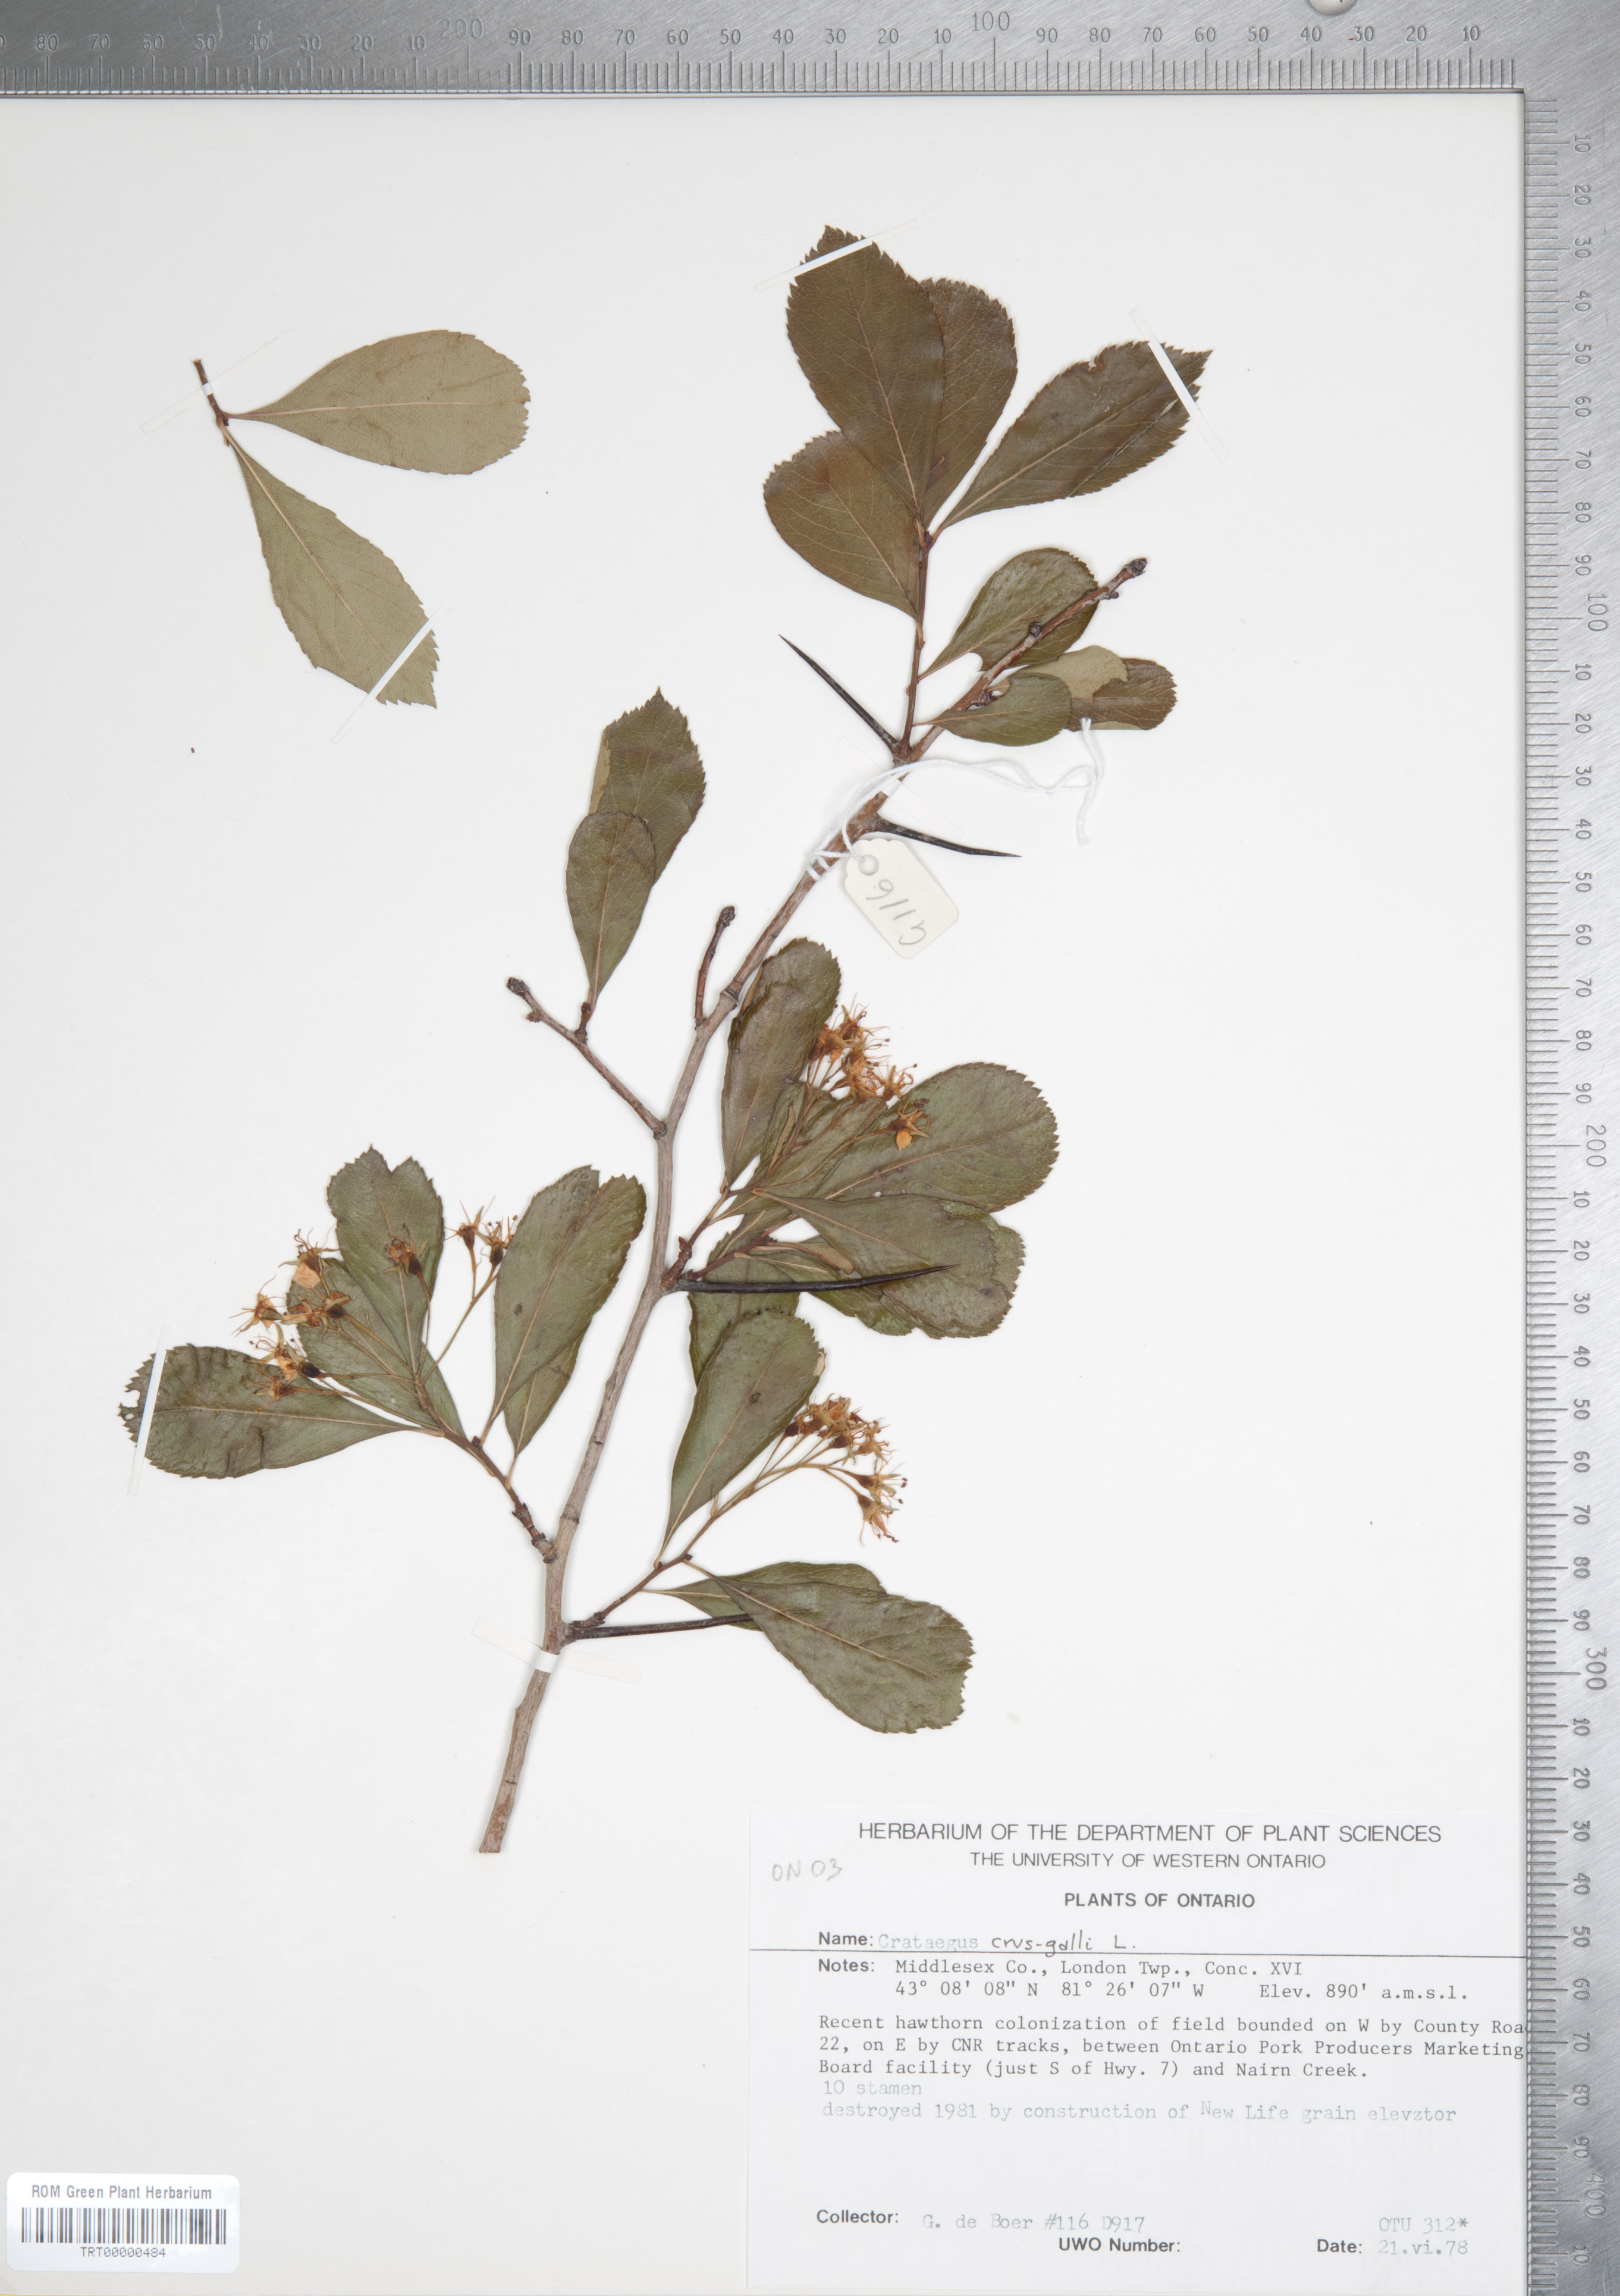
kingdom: Plantae
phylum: Tracheophyta
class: Magnoliopsida
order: Rosales
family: Rosaceae
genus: Crataegus
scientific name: Crataegus crus-galli
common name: Cockspurthorn
